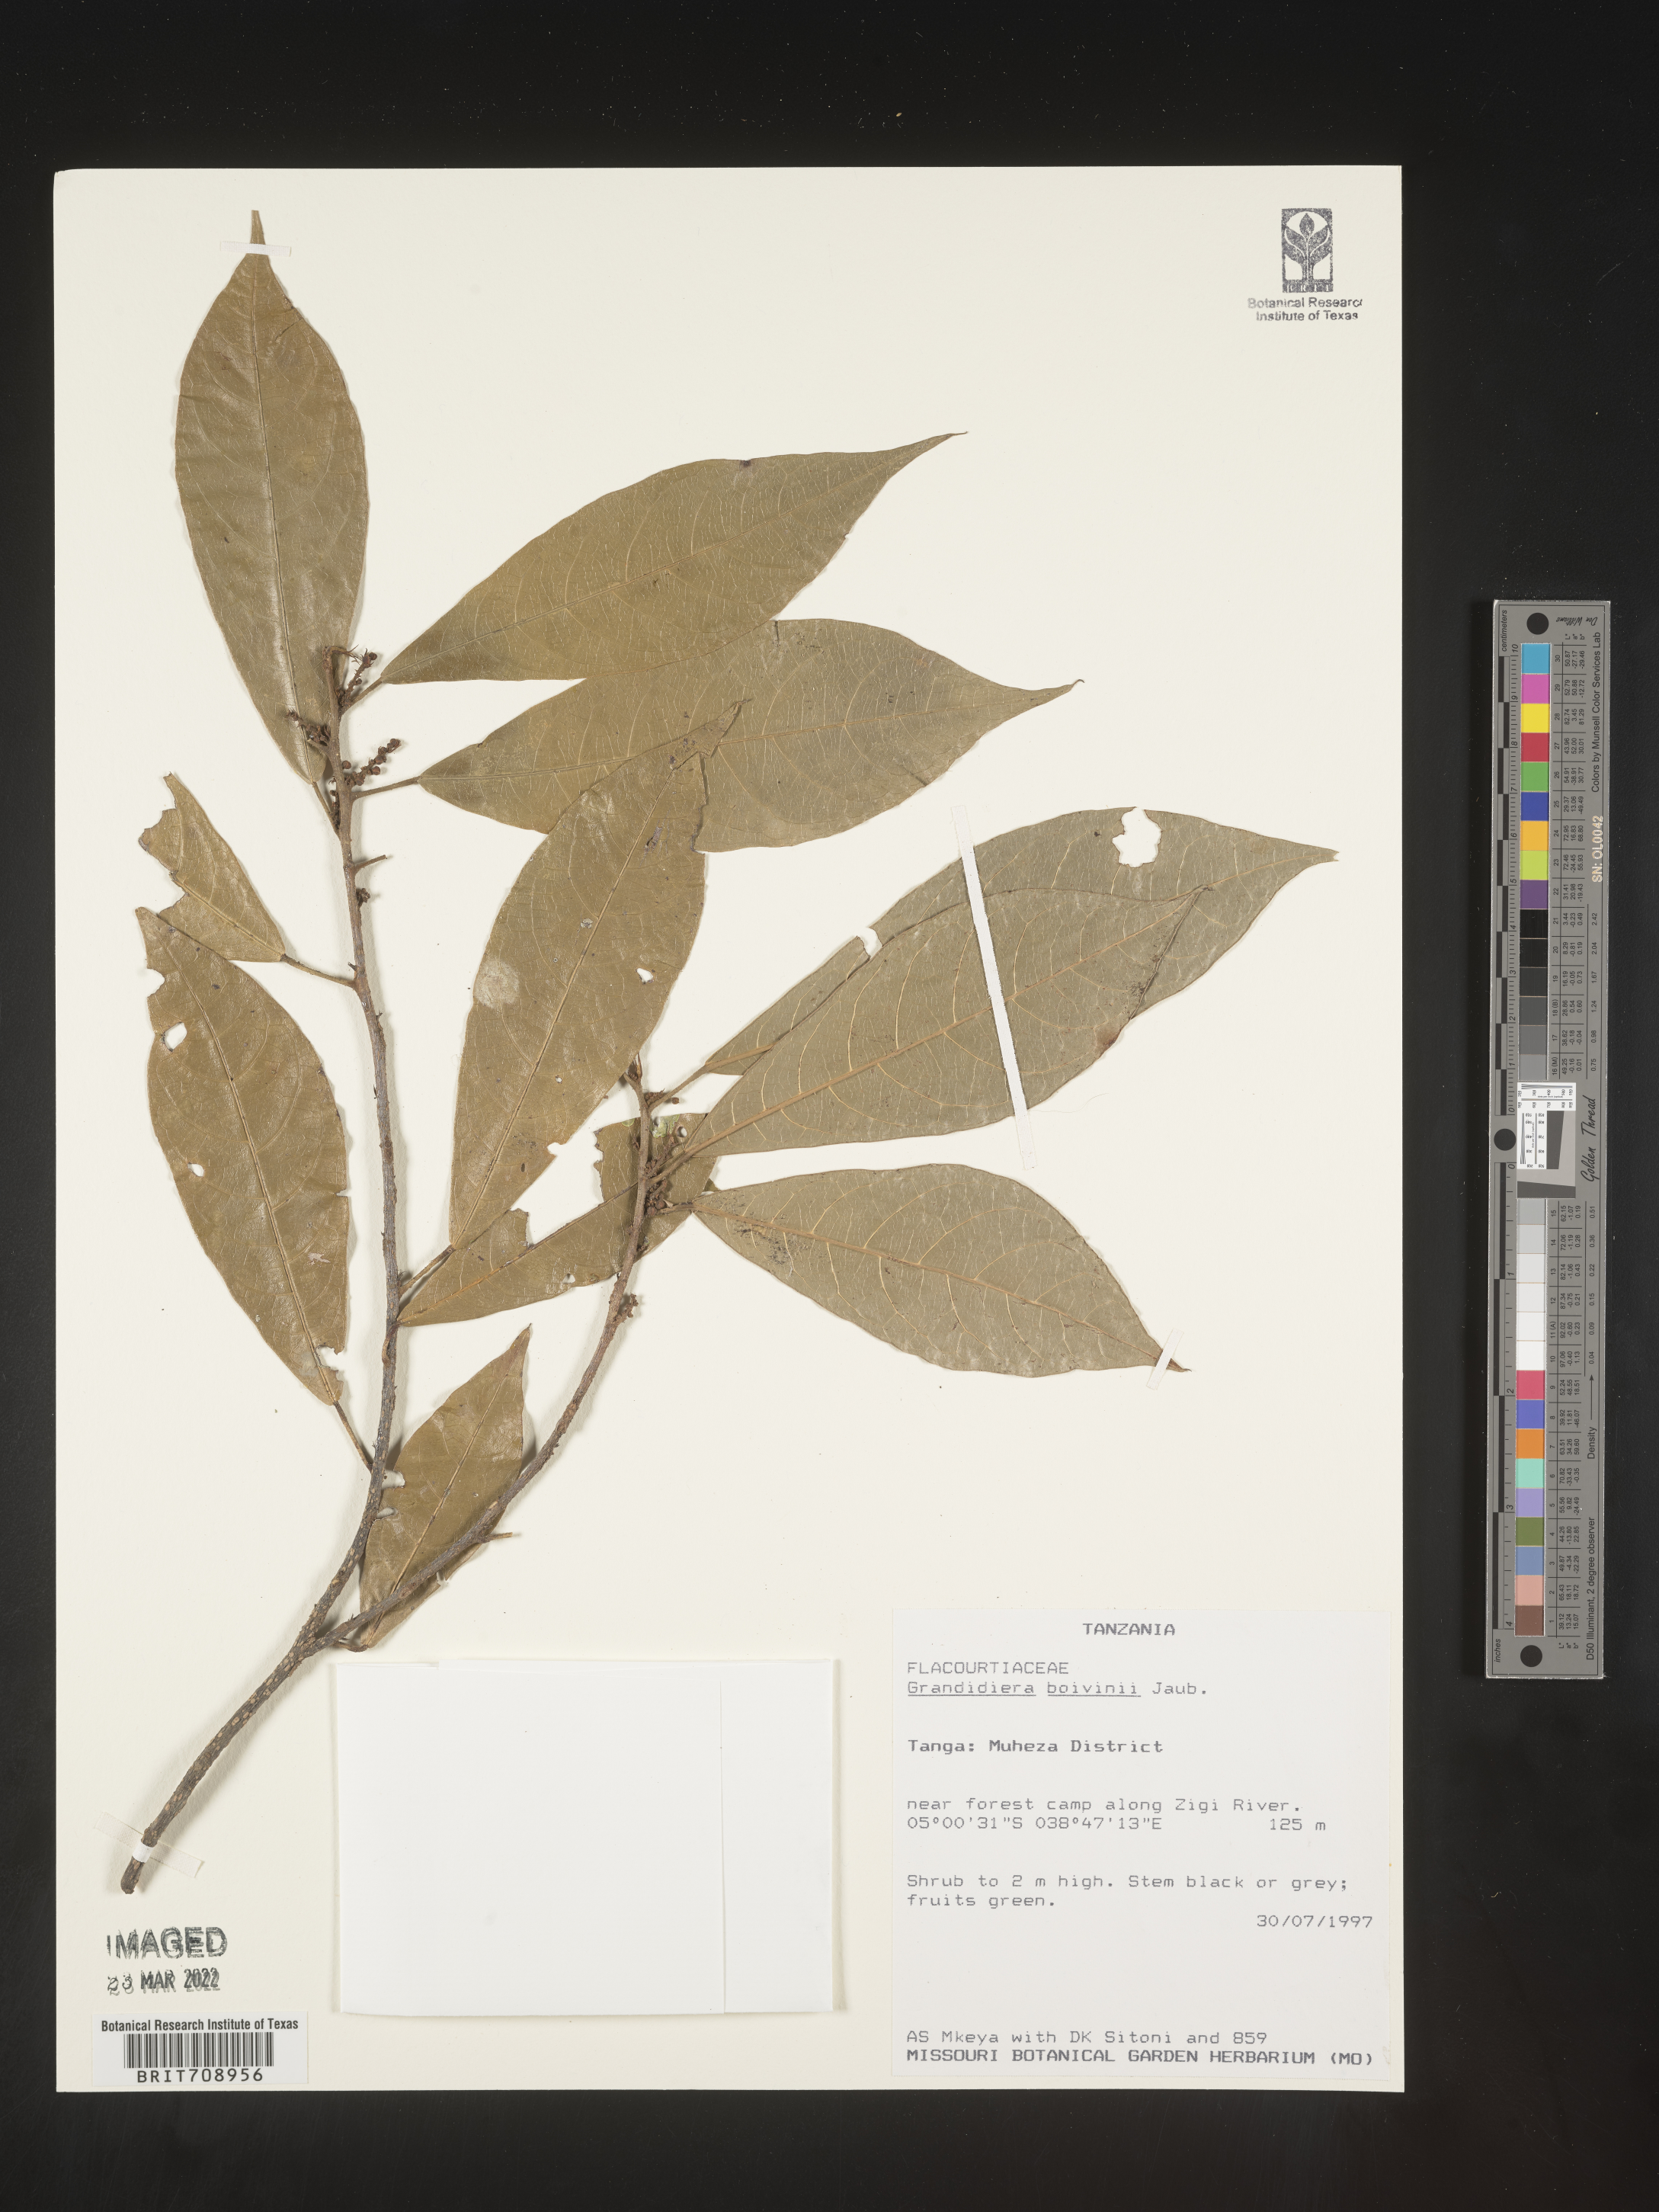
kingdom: Plantae
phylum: Tracheophyta
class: Magnoliopsida
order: Malpighiales
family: Achariaceae
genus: Grandidiera
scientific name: Grandidiera
